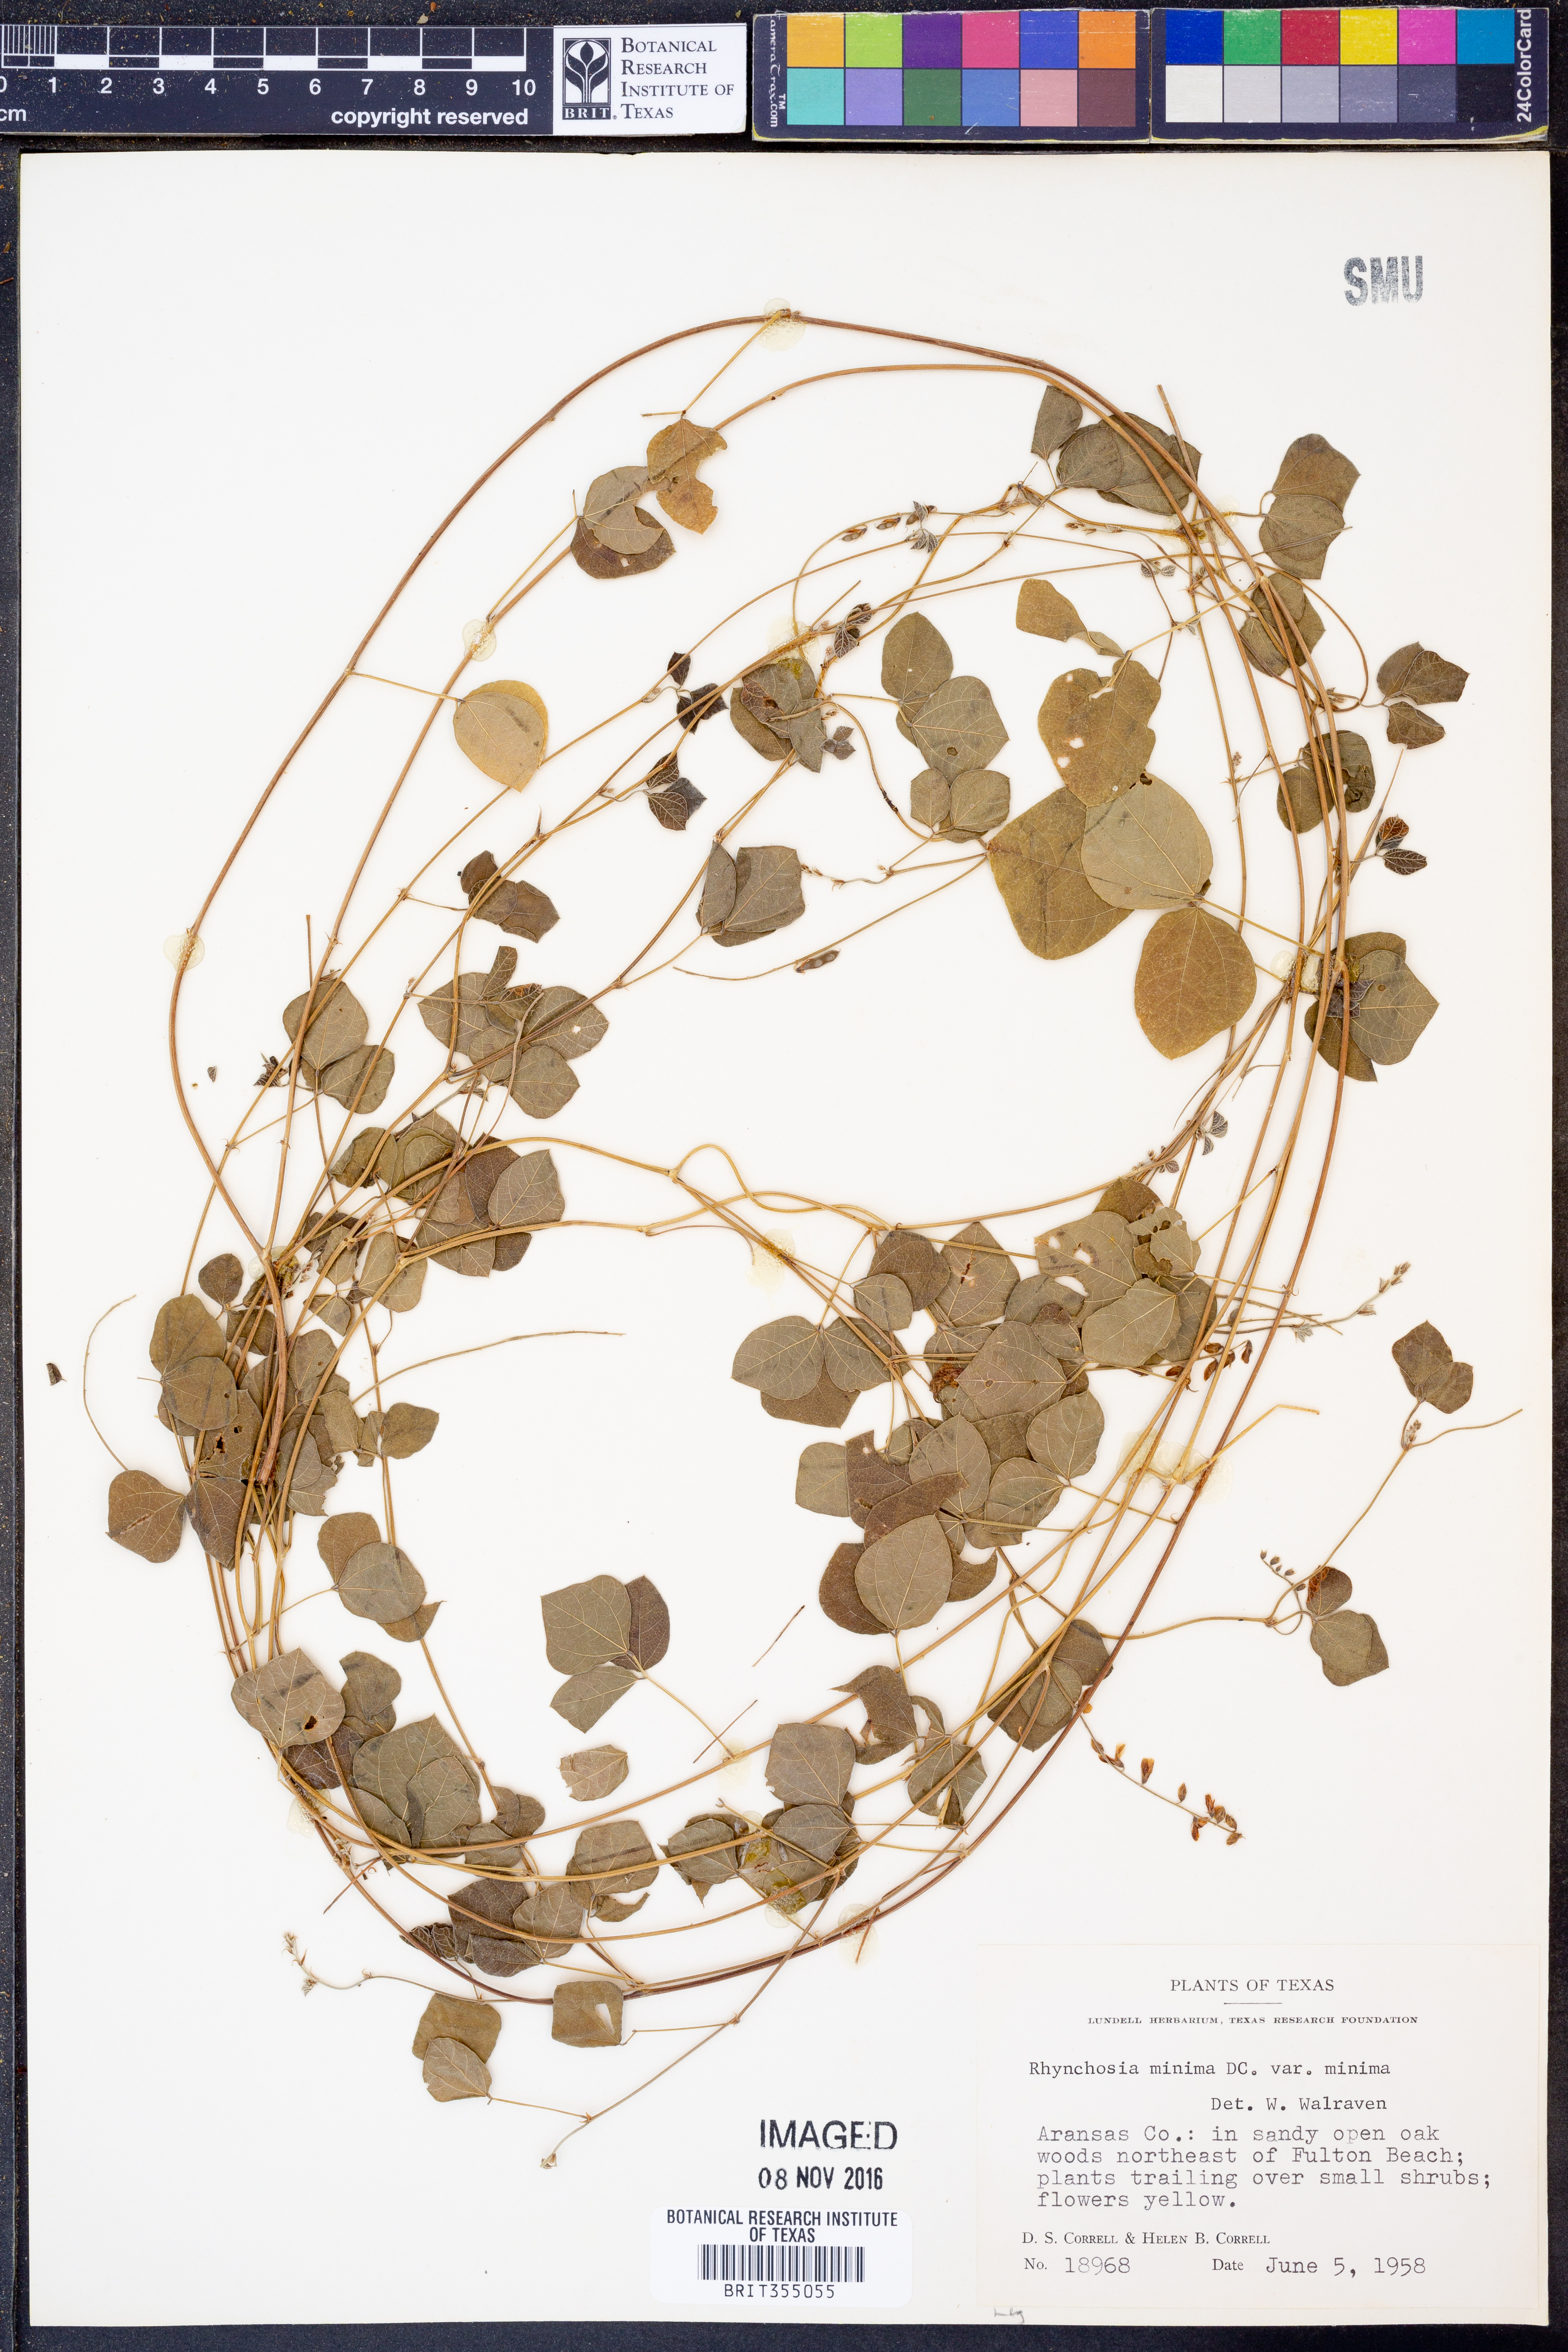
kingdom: Plantae
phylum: Tracheophyta
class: Magnoliopsida
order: Fabales
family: Fabaceae
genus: Rhynchosia
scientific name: Rhynchosia minima
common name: Least snoutbean
